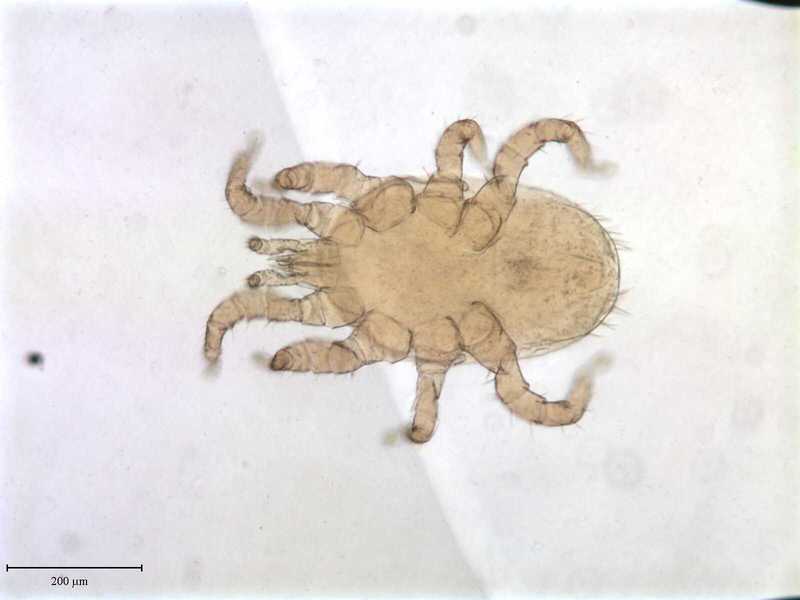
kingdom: Animalia
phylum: Arthropoda
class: Arachnida
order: Mesostigmata
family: Macronyssidae
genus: Macronyssus
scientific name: Macronyssus crosbyi
